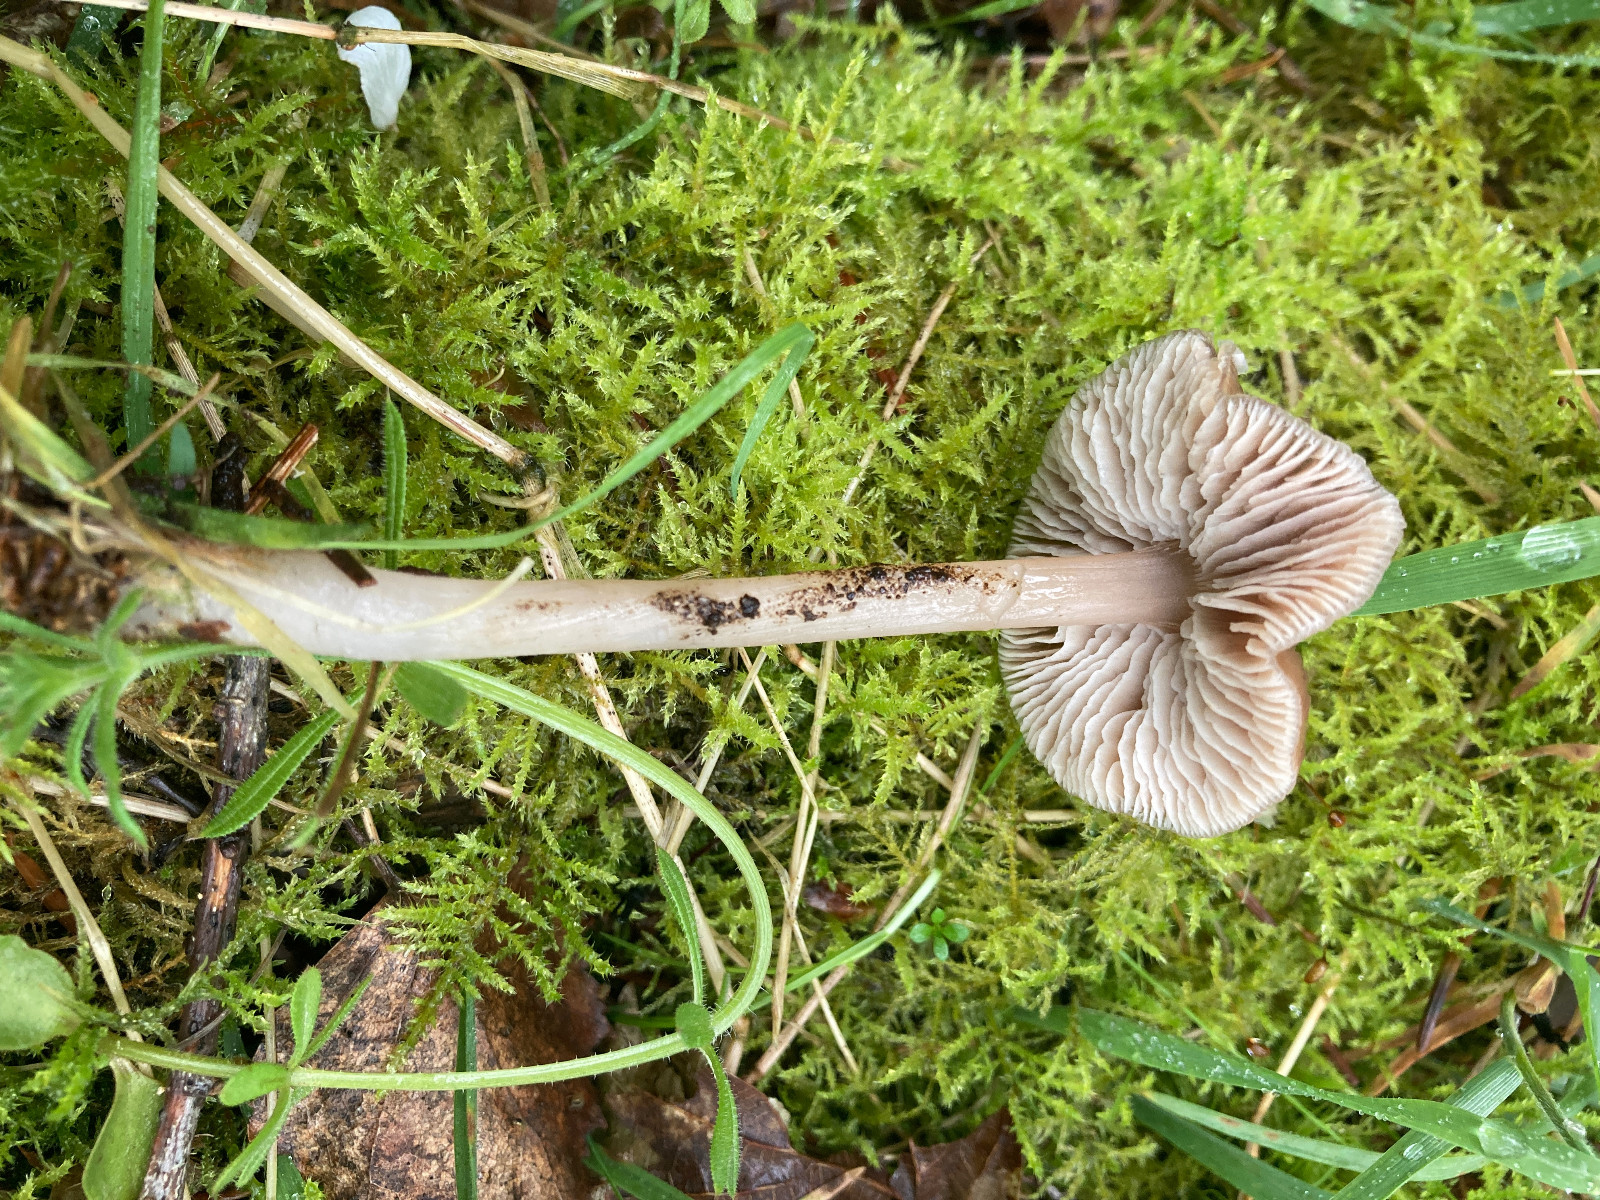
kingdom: Fungi
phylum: Basidiomycota
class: Agaricomycetes
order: Agaricales
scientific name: Agaricales
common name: champignonordenen
